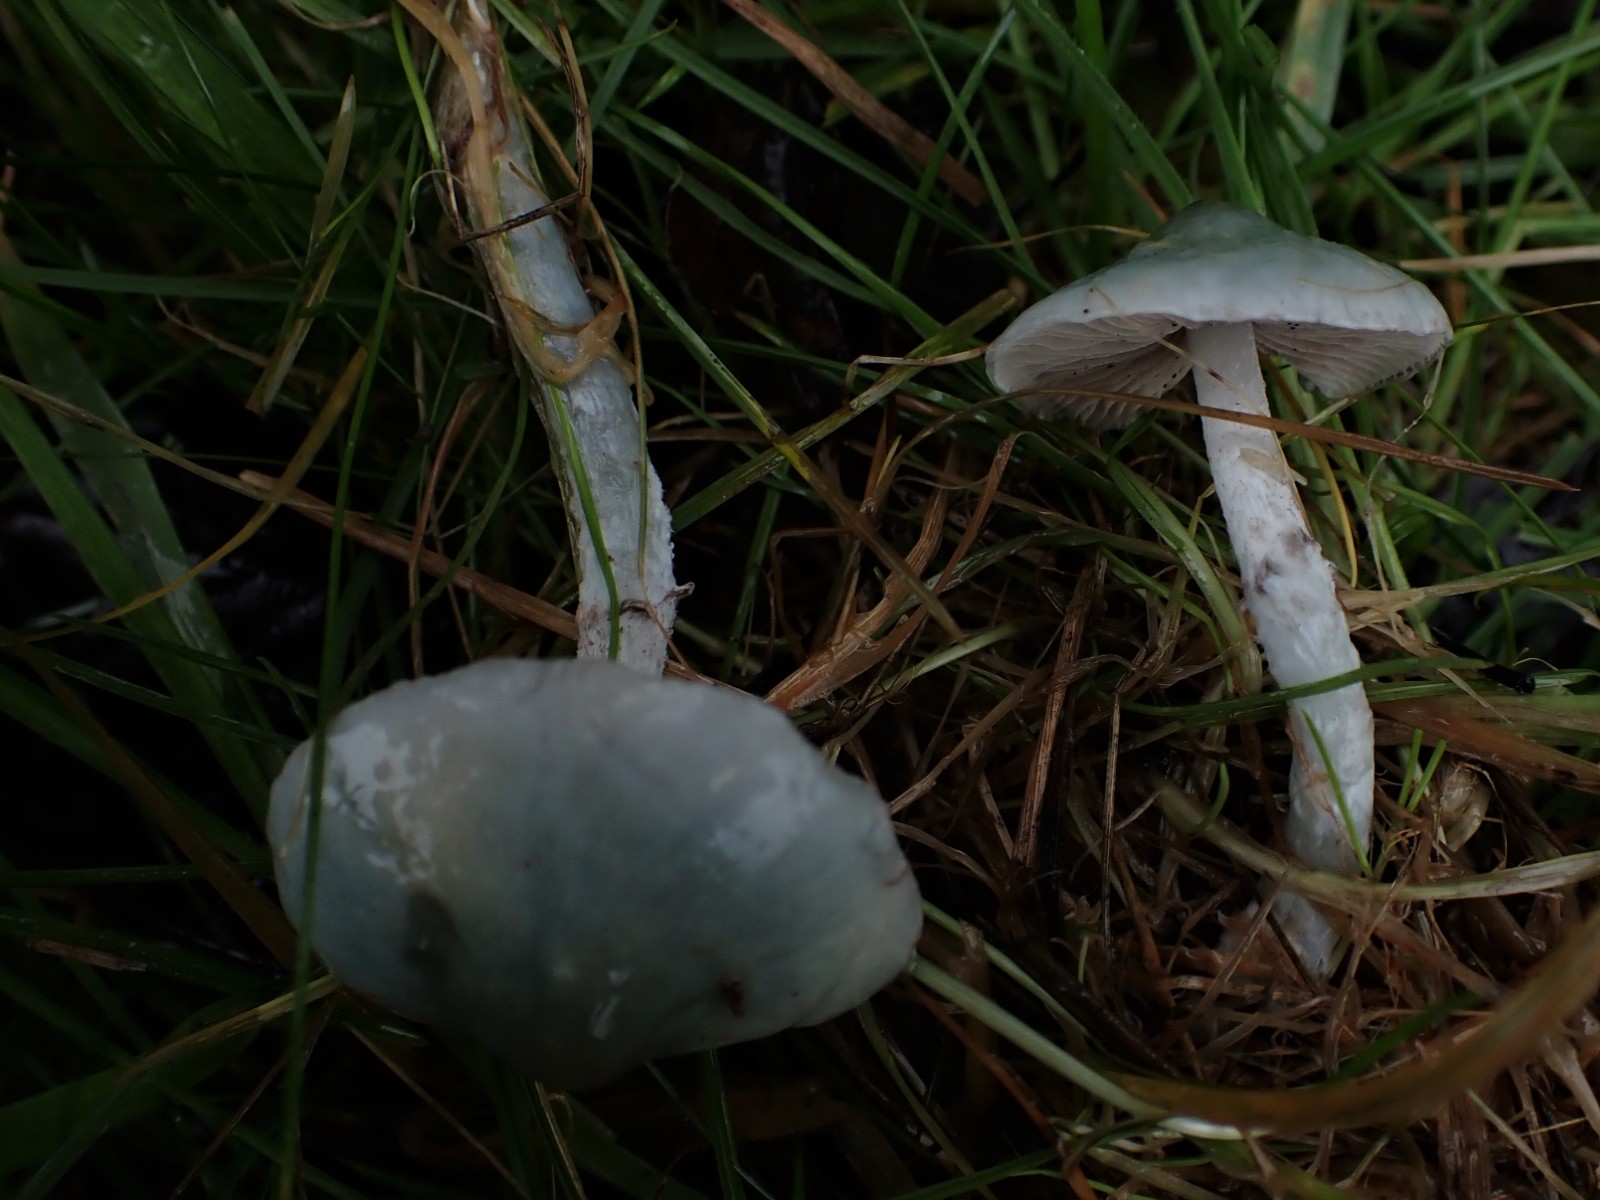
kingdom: Fungi
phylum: Basidiomycota
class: Agaricomycetes
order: Agaricales
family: Strophariaceae
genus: Stropharia
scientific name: Stropharia cyanea
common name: blågrøn bredblad
